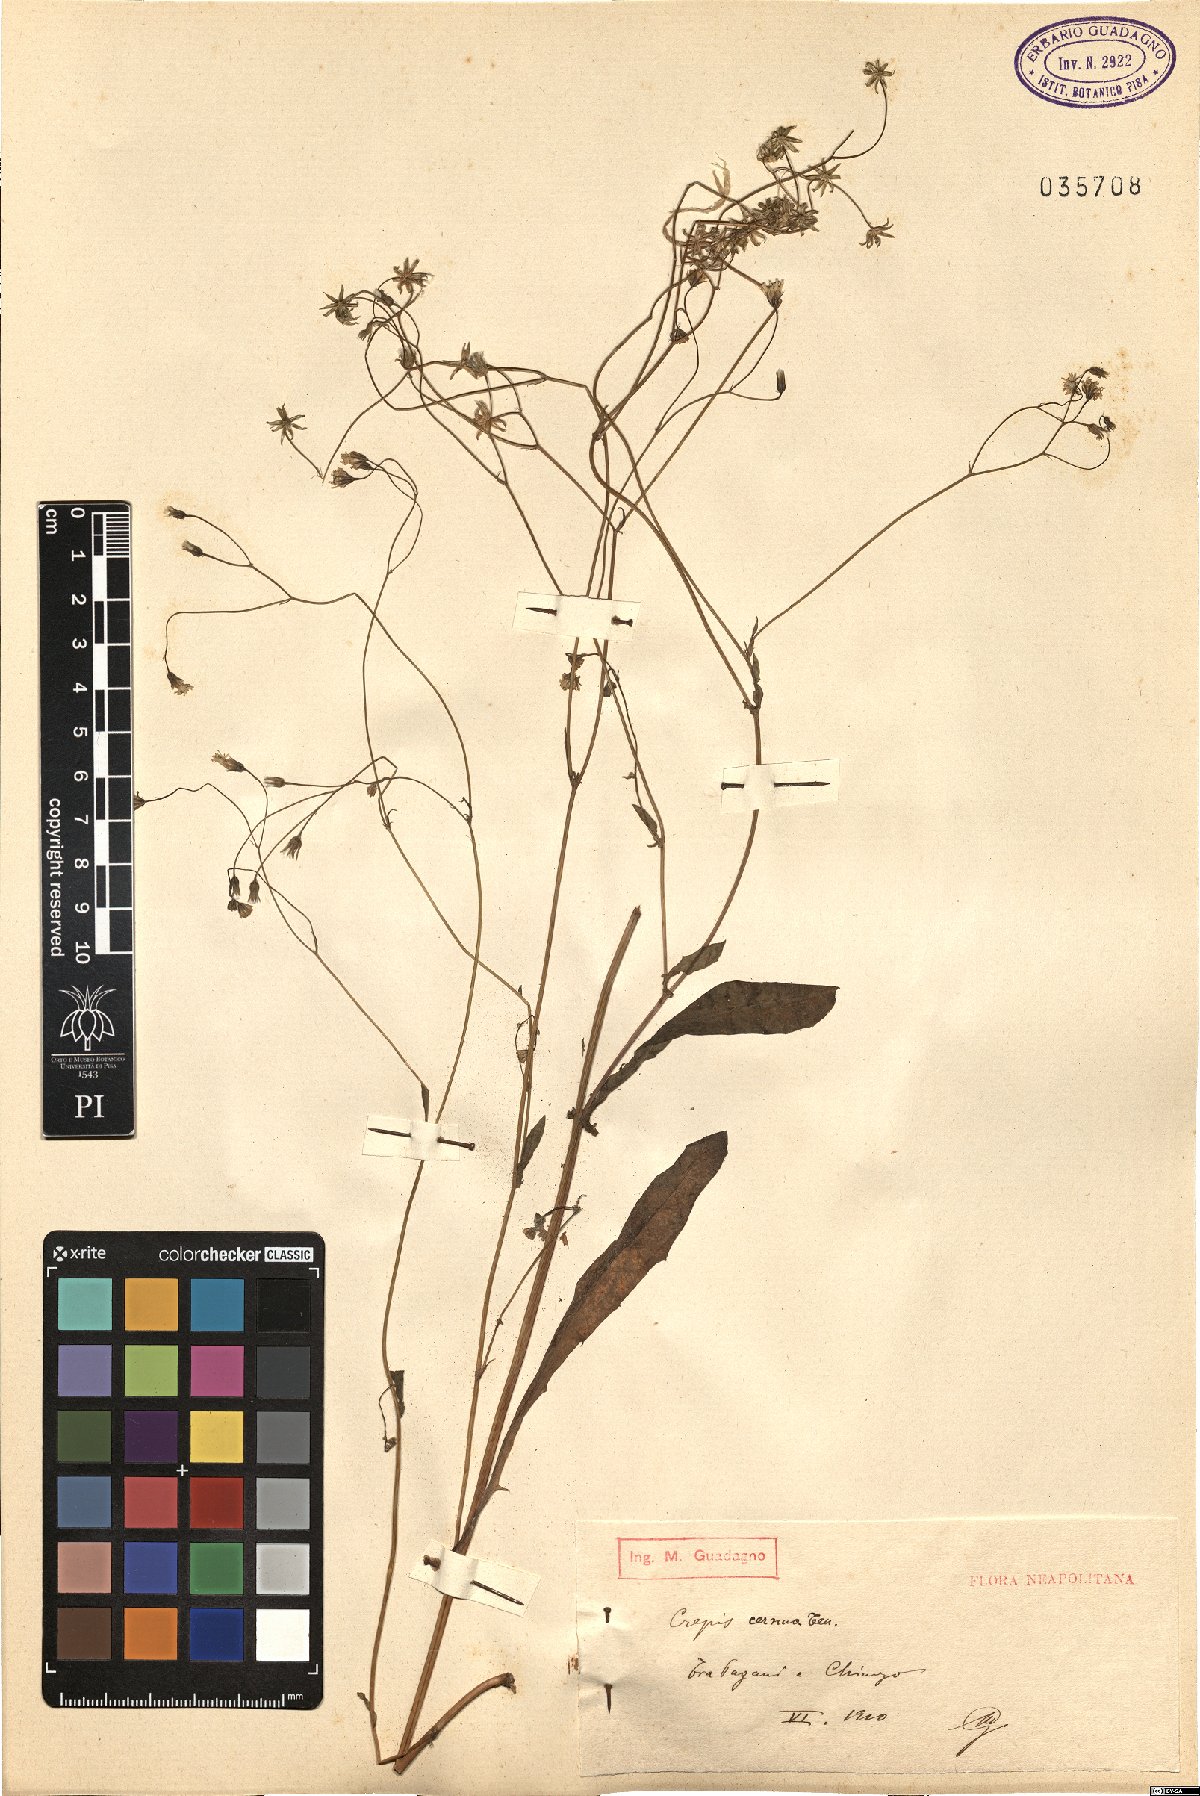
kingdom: Plantae
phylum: Tracheophyta
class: Magnoliopsida
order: Asterales
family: Asteraceae
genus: Crepis
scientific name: Crepis neglecta
